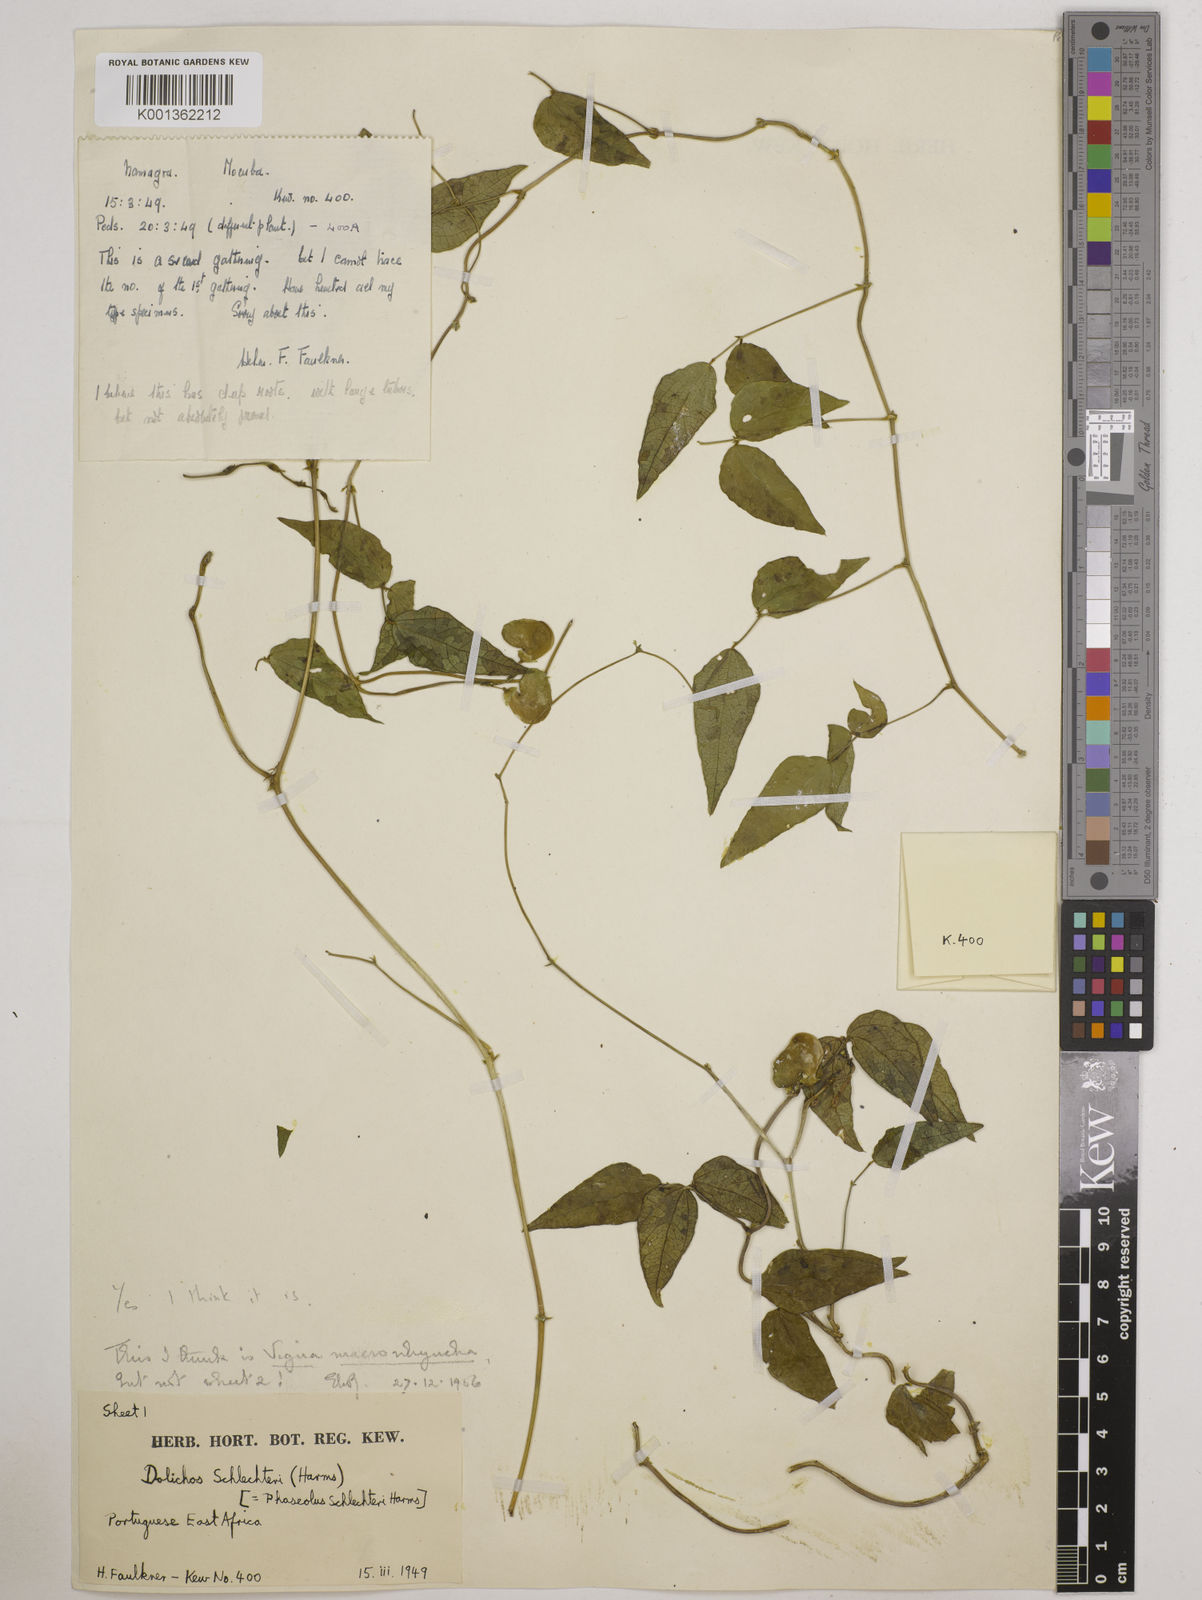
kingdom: Plantae
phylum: Tracheophyta
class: Magnoliopsida
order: Fabales
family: Fabaceae
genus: Wajira
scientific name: Wajira grahamiana
